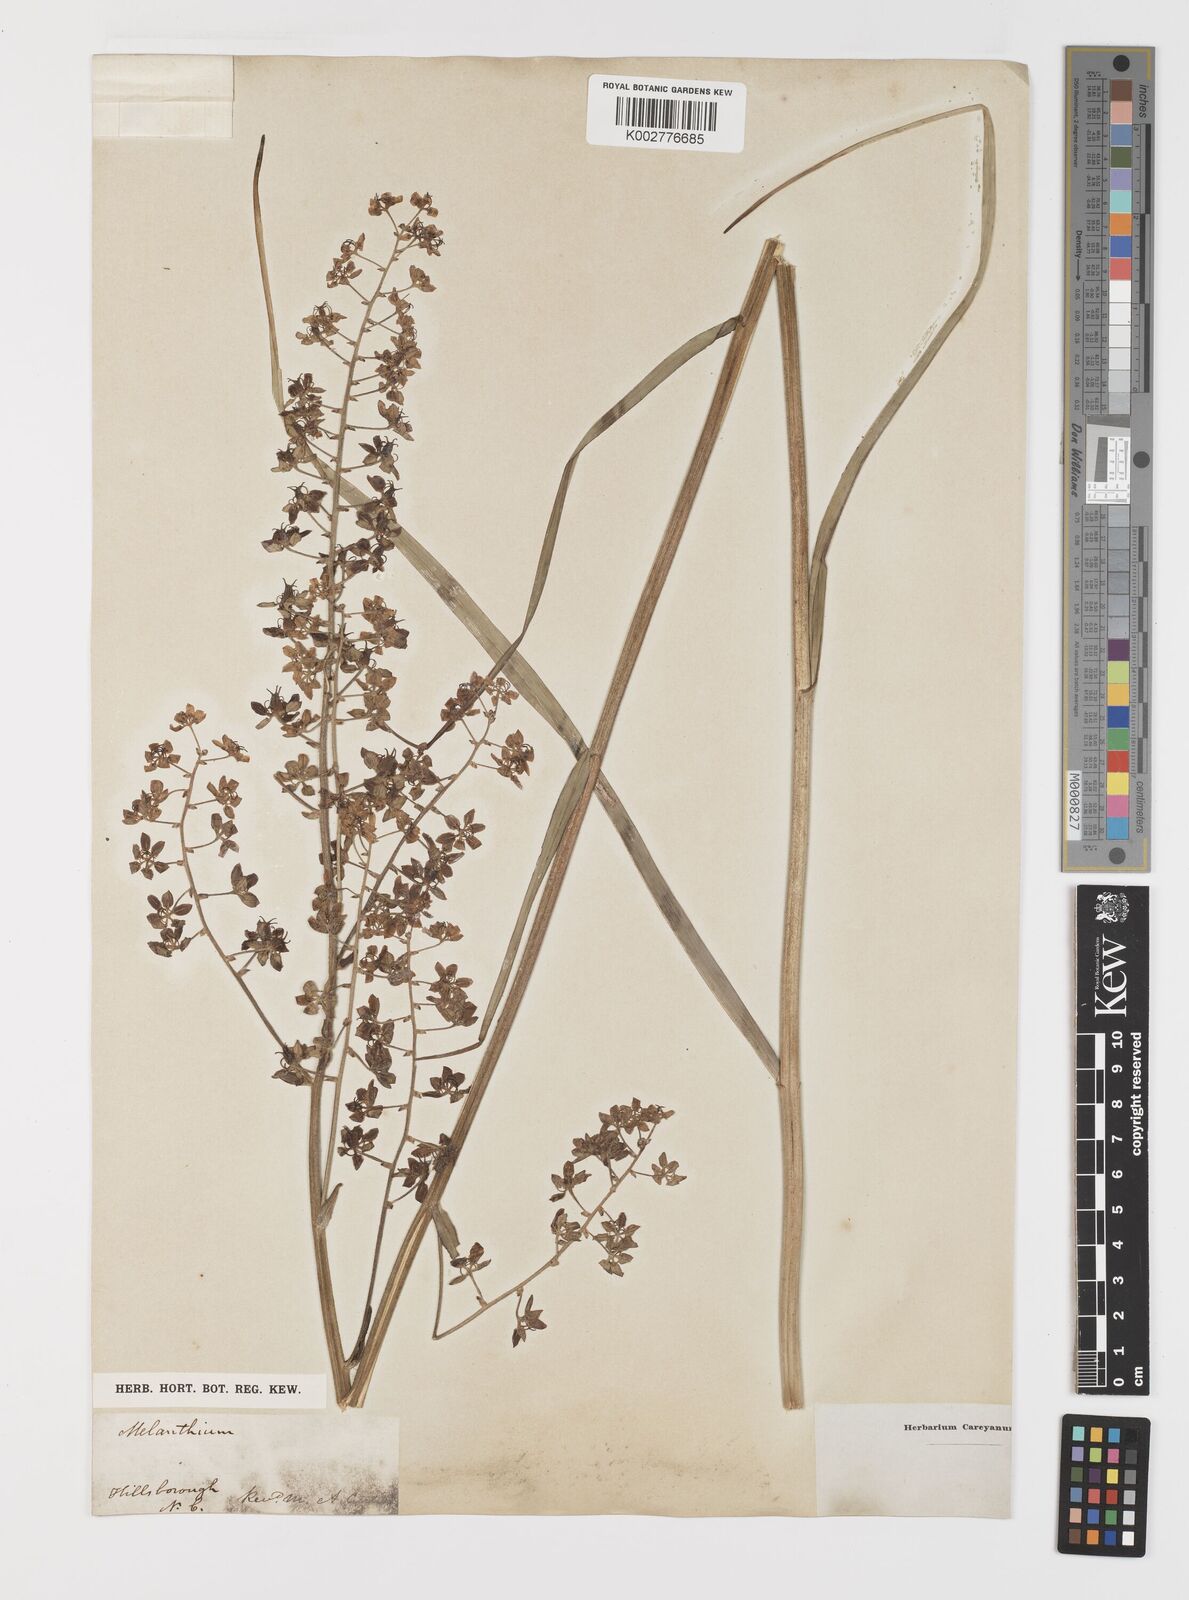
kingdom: Plantae
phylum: Tracheophyta
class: Liliopsida
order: Liliales
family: Melanthiaceae
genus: Melanthium
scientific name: Melanthium virginicum
